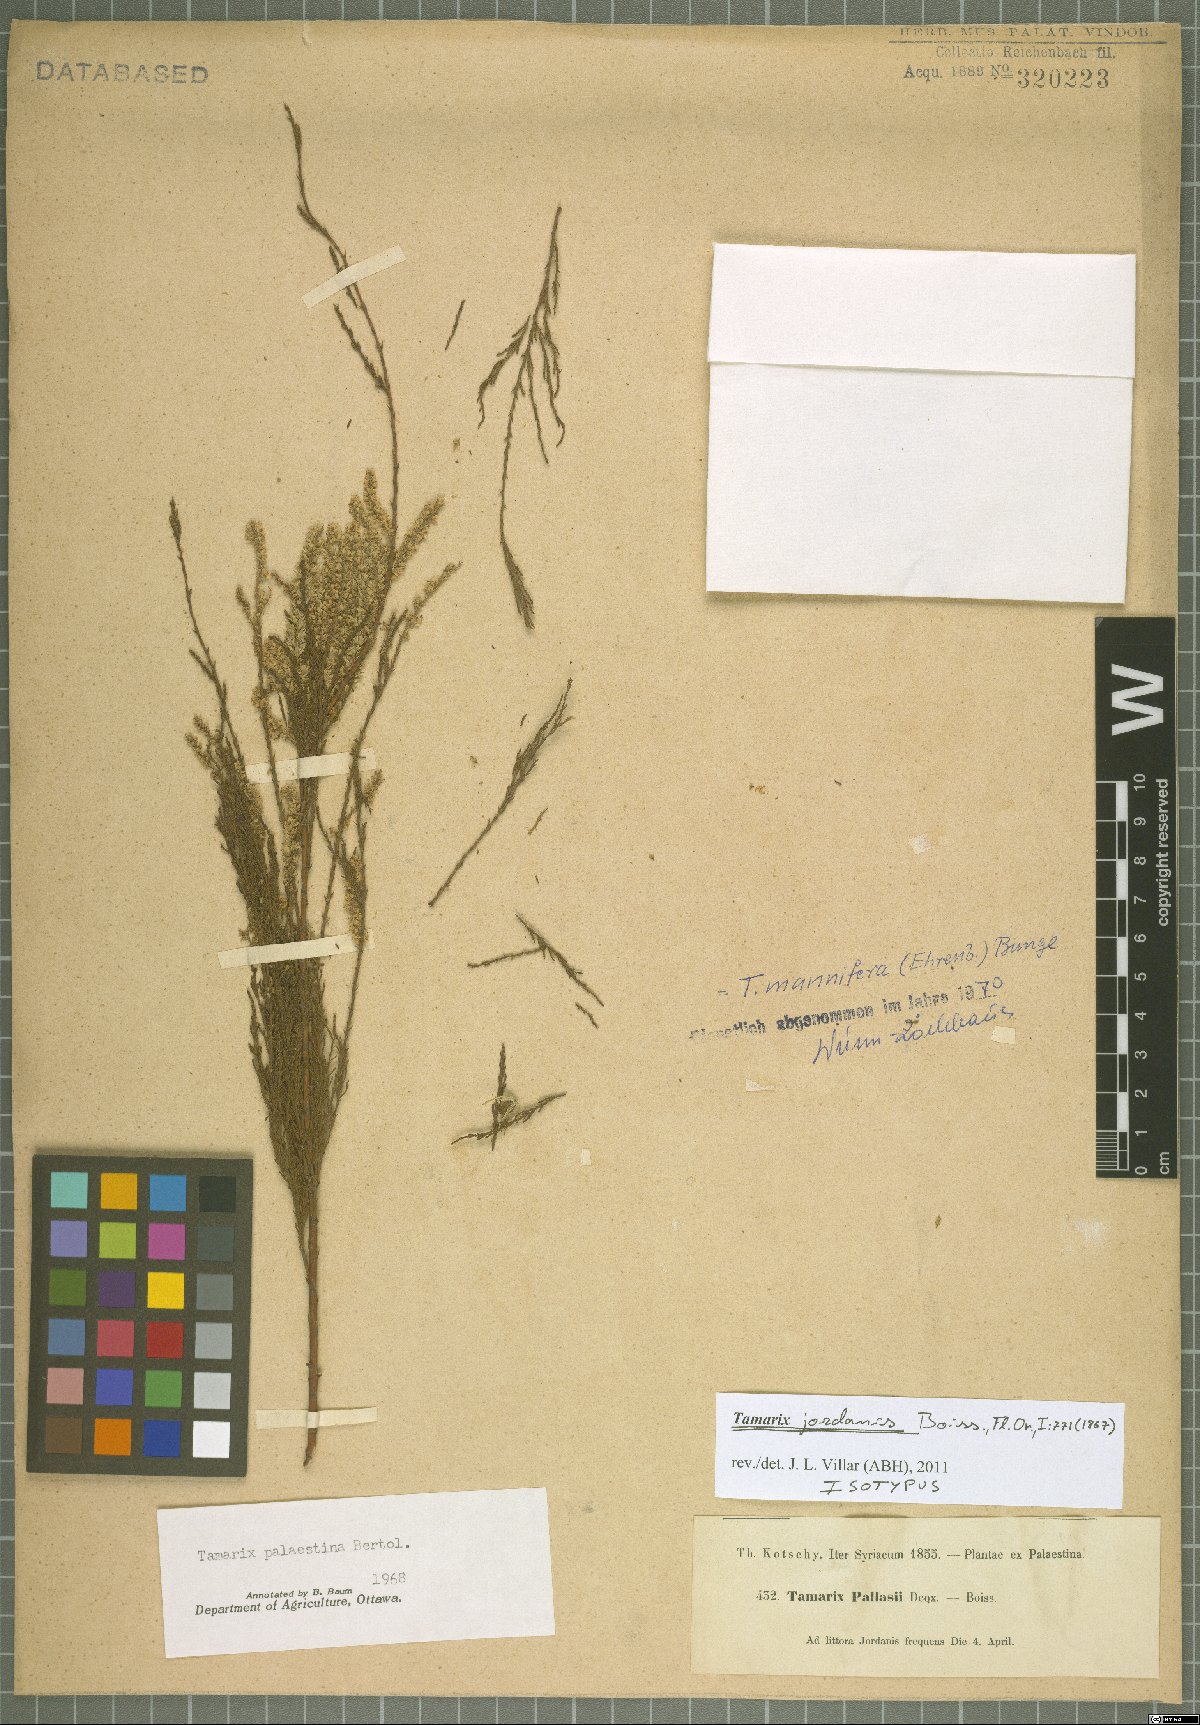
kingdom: Plantae
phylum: Tracheophyta
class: Magnoliopsida
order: Caryophyllales
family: Tamaricaceae
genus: Tamarix
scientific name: Tamarix palaestina
